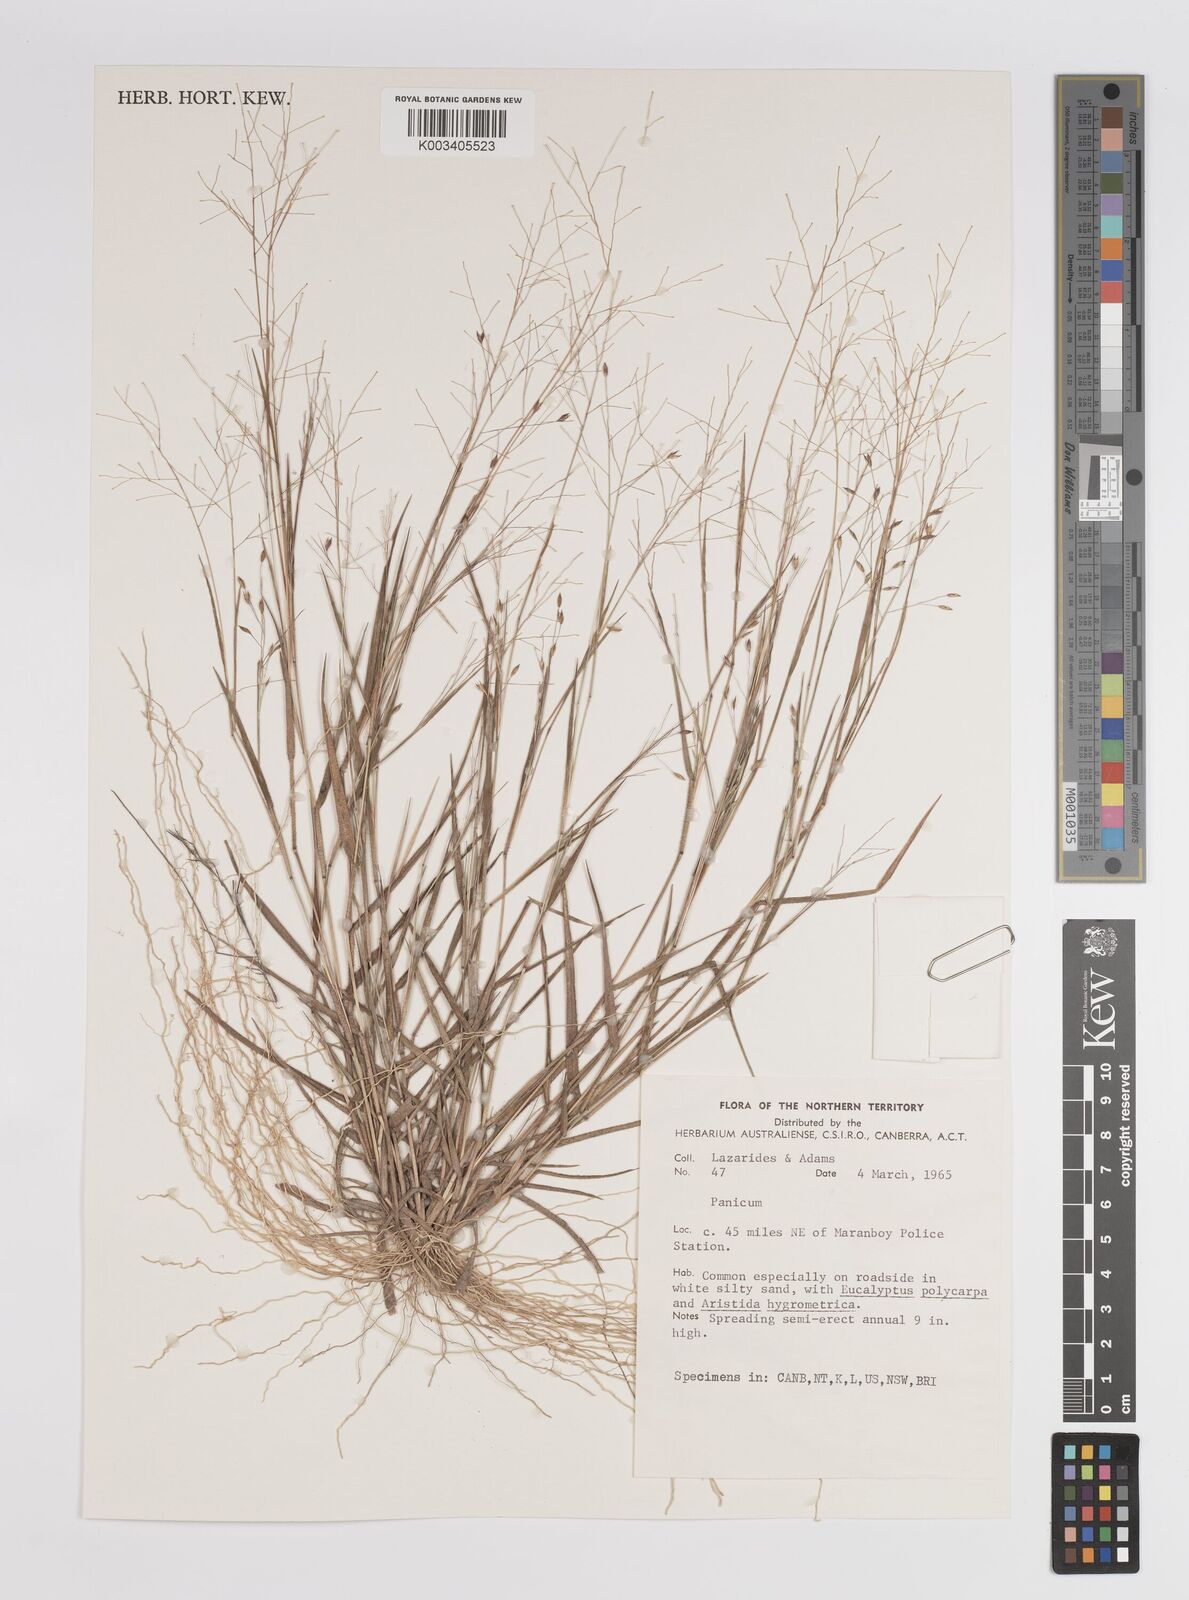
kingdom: Plantae
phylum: Tracheophyta
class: Liliopsida
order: Poales
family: Poaceae
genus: Panicum
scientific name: Panicum
